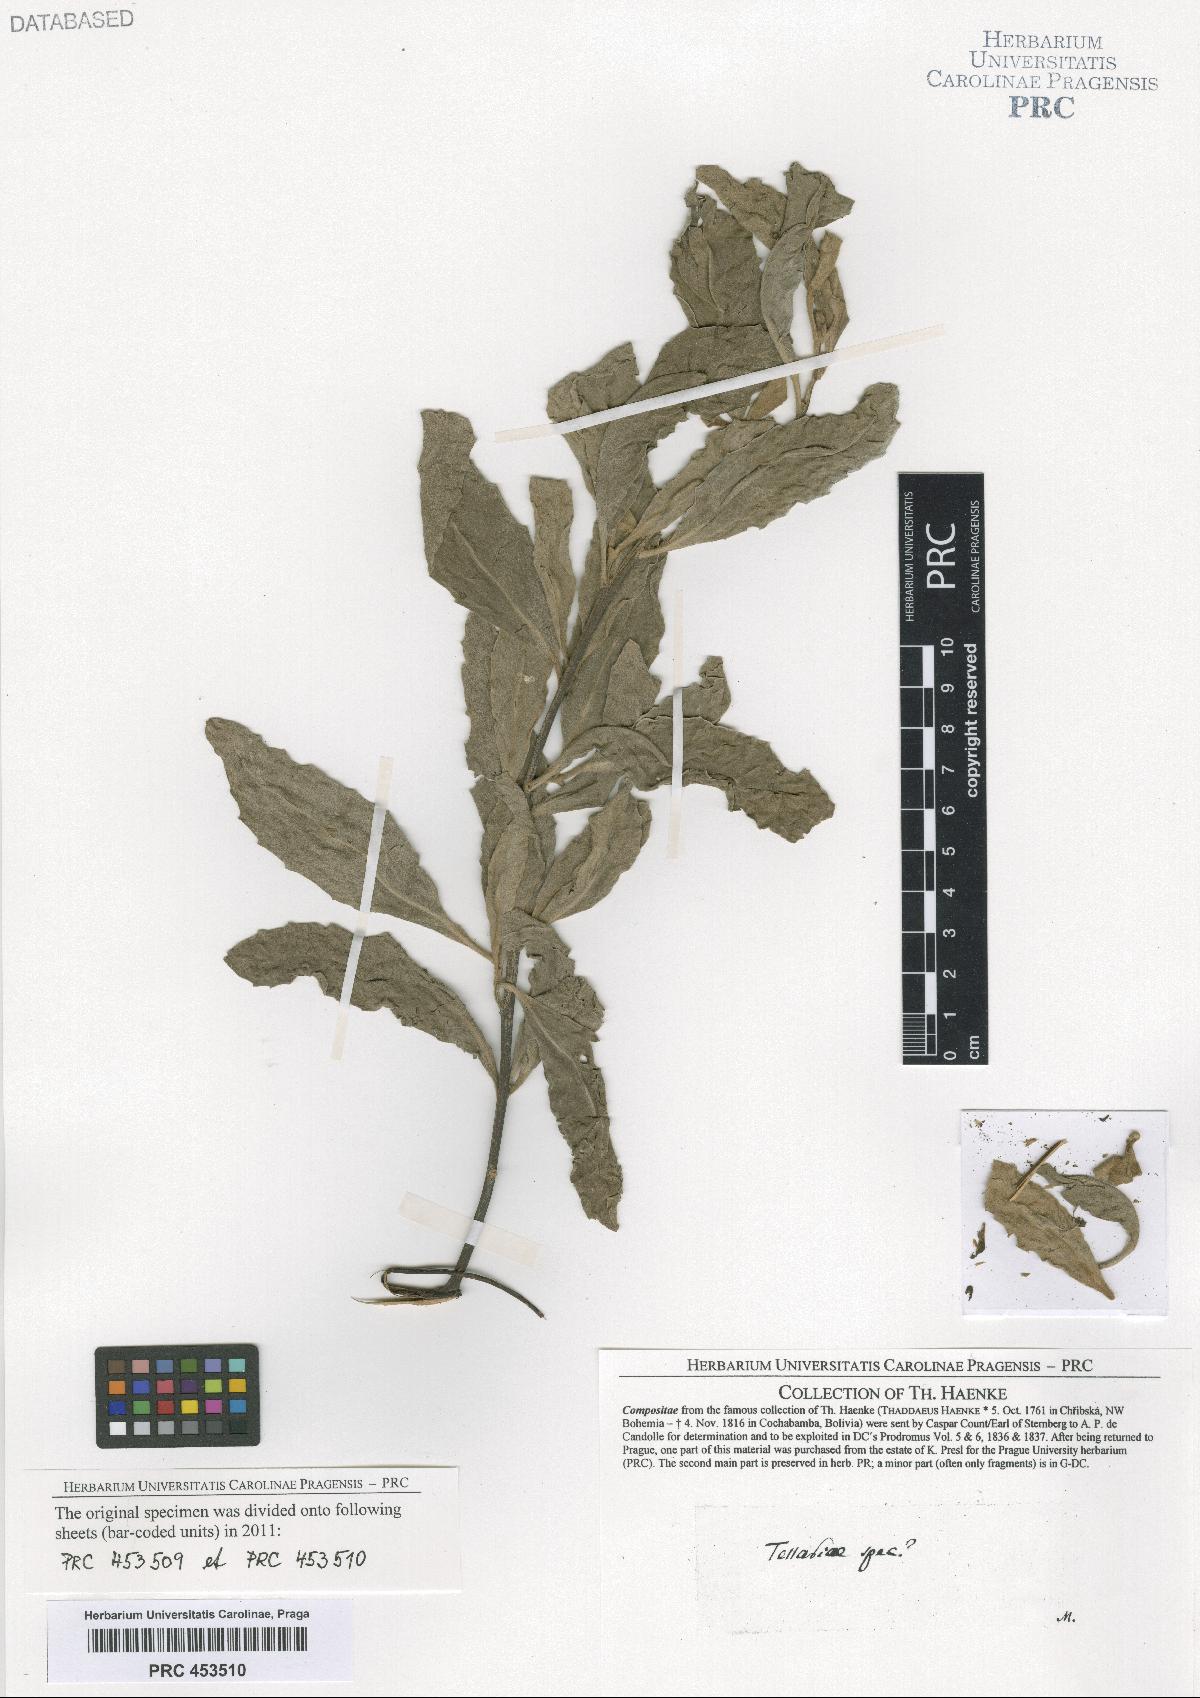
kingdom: Plantae
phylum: Tracheophyta
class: Magnoliopsida
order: Asterales
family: Asteraceae
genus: Tessaria
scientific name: Tessaria
